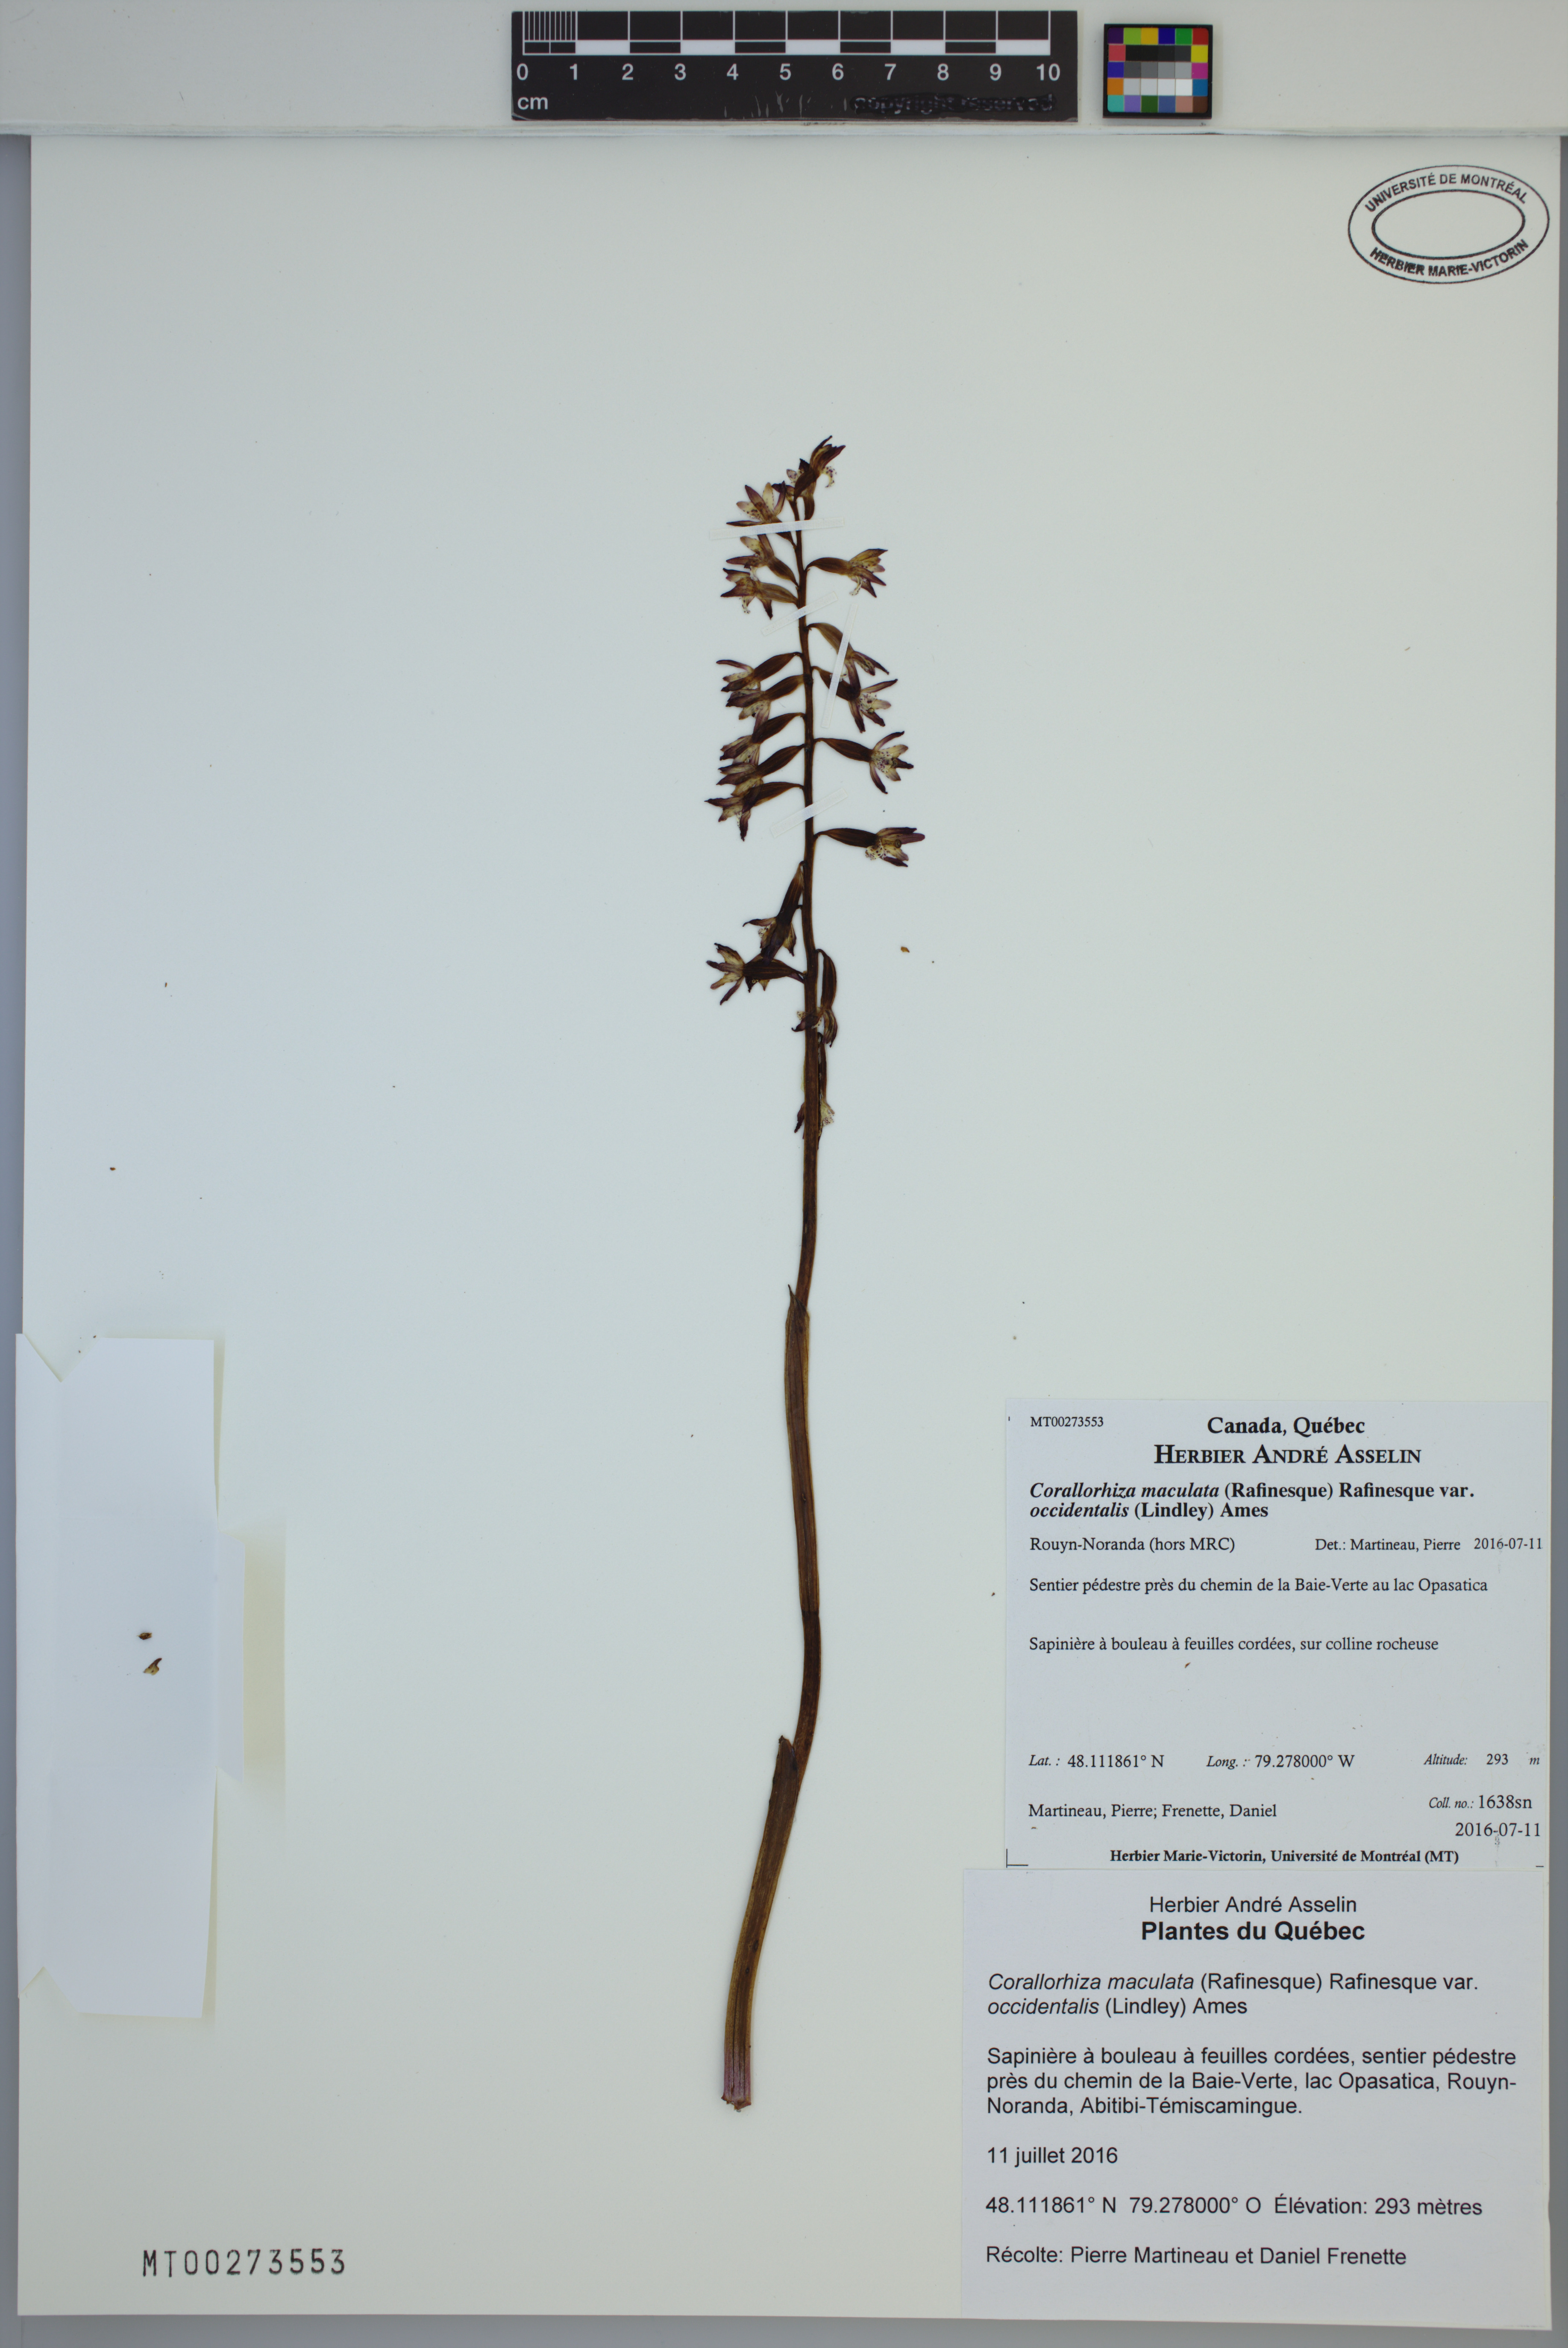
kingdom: Plantae
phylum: Tracheophyta
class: Liliopsida
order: Asparagales
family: Orchidaceae
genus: Corallorhiza
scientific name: Corallorhiza maculata
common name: Spotted coralroot
